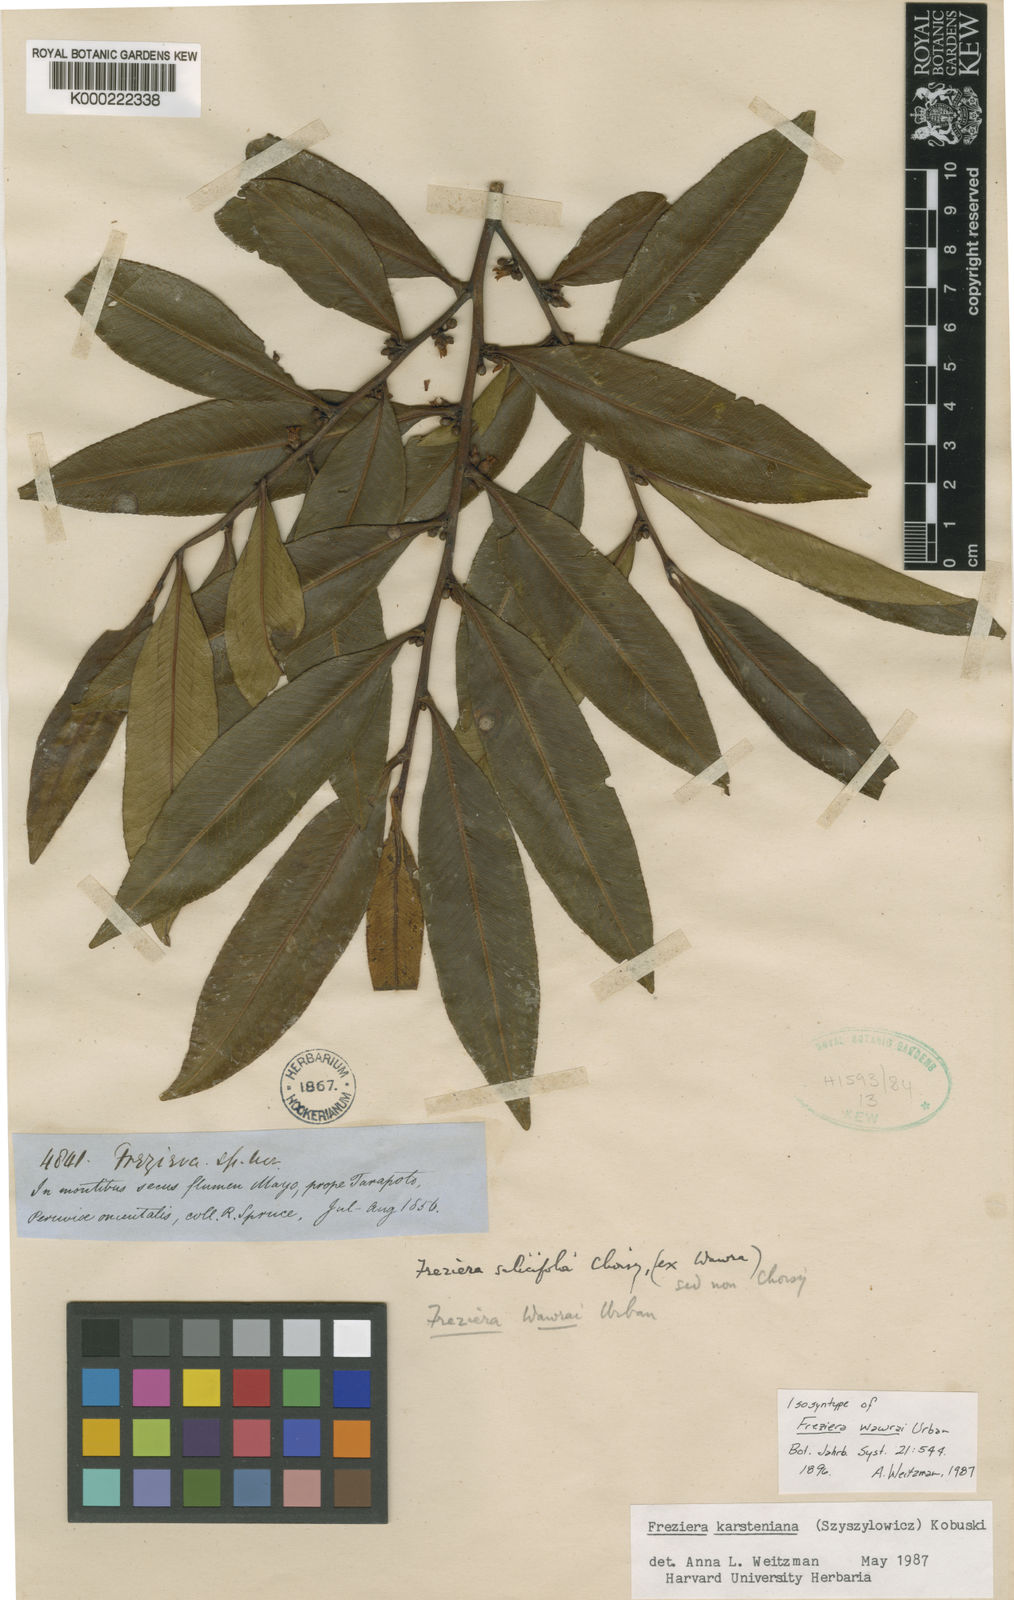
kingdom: Plantae
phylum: Tracheophyta
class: Magnoliopsida
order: Ericales
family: Pentaphylacaceae
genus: Freziera
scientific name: Freziera
